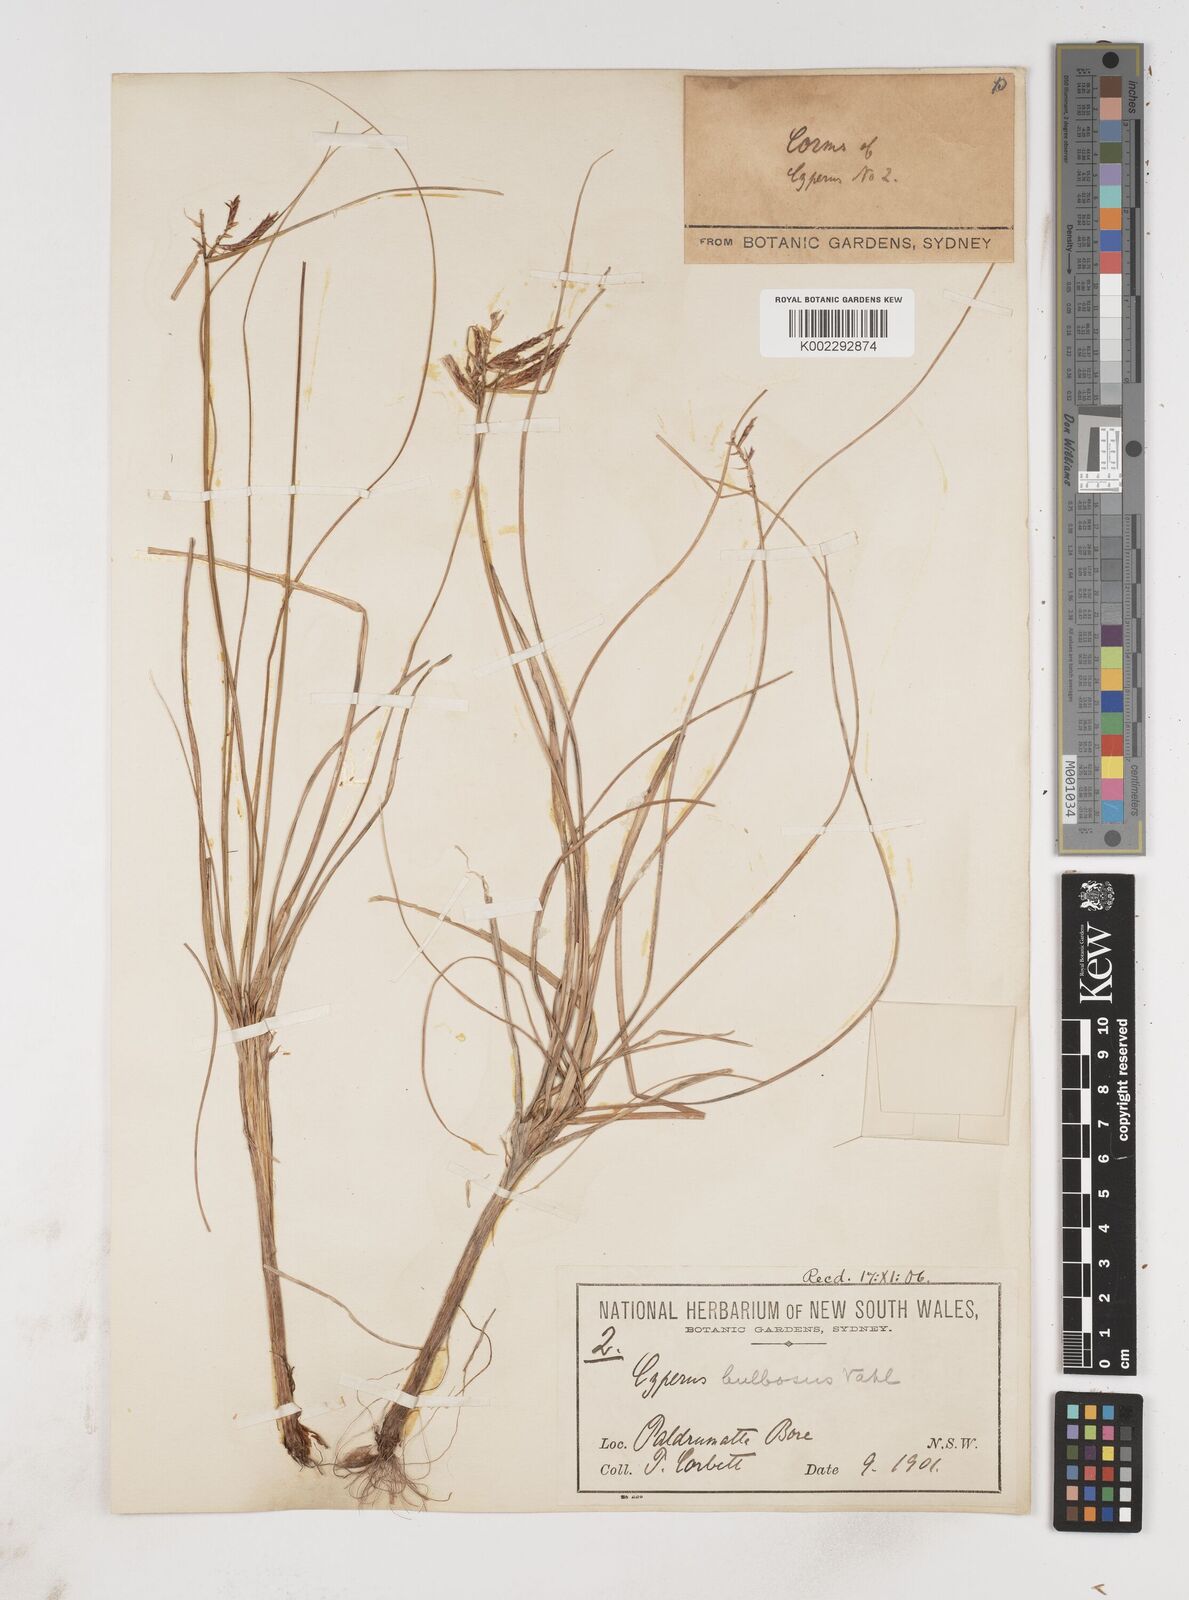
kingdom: Plantae
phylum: Tracheophyta
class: Liliopsida
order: Poales
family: Cyperaceae
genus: Cyperus
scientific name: Cyperus bulbosus
